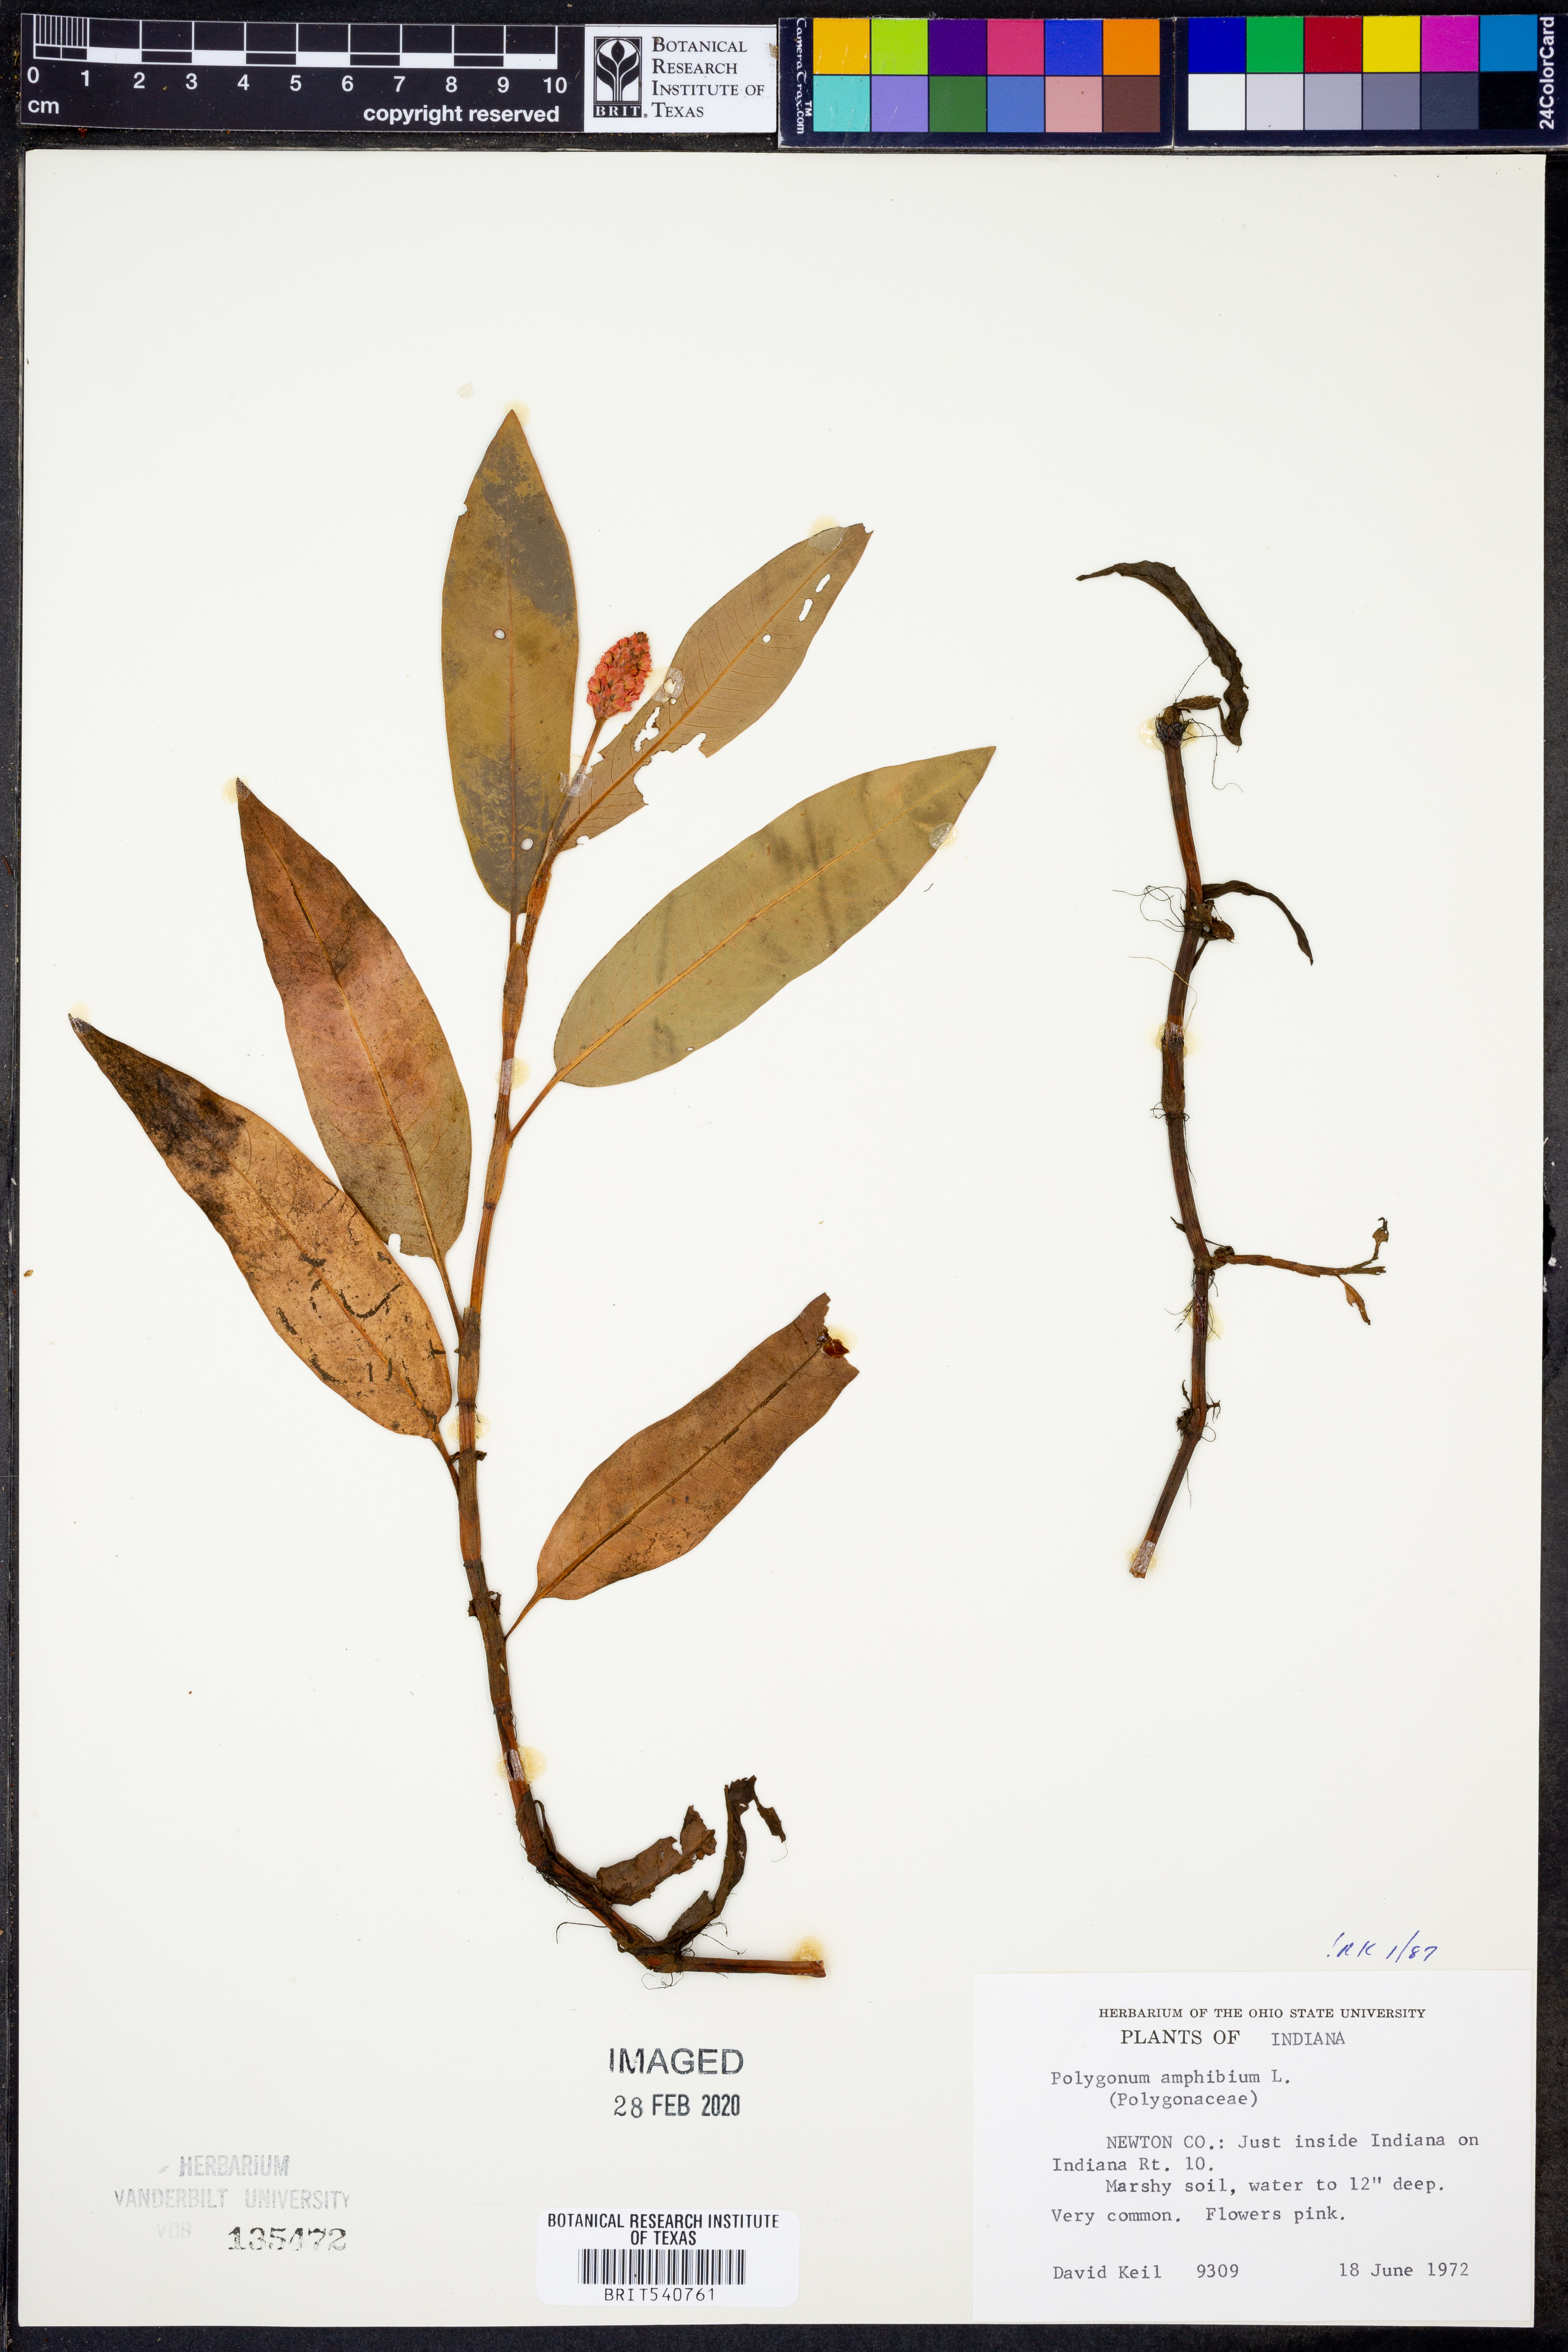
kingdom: Plantae
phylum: Tracheophyta
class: Magnoliopsida
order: Caryophyllales
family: Polygonaceae
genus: Persicaria
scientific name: Persicaria amphibia
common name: Amphibious bistort
